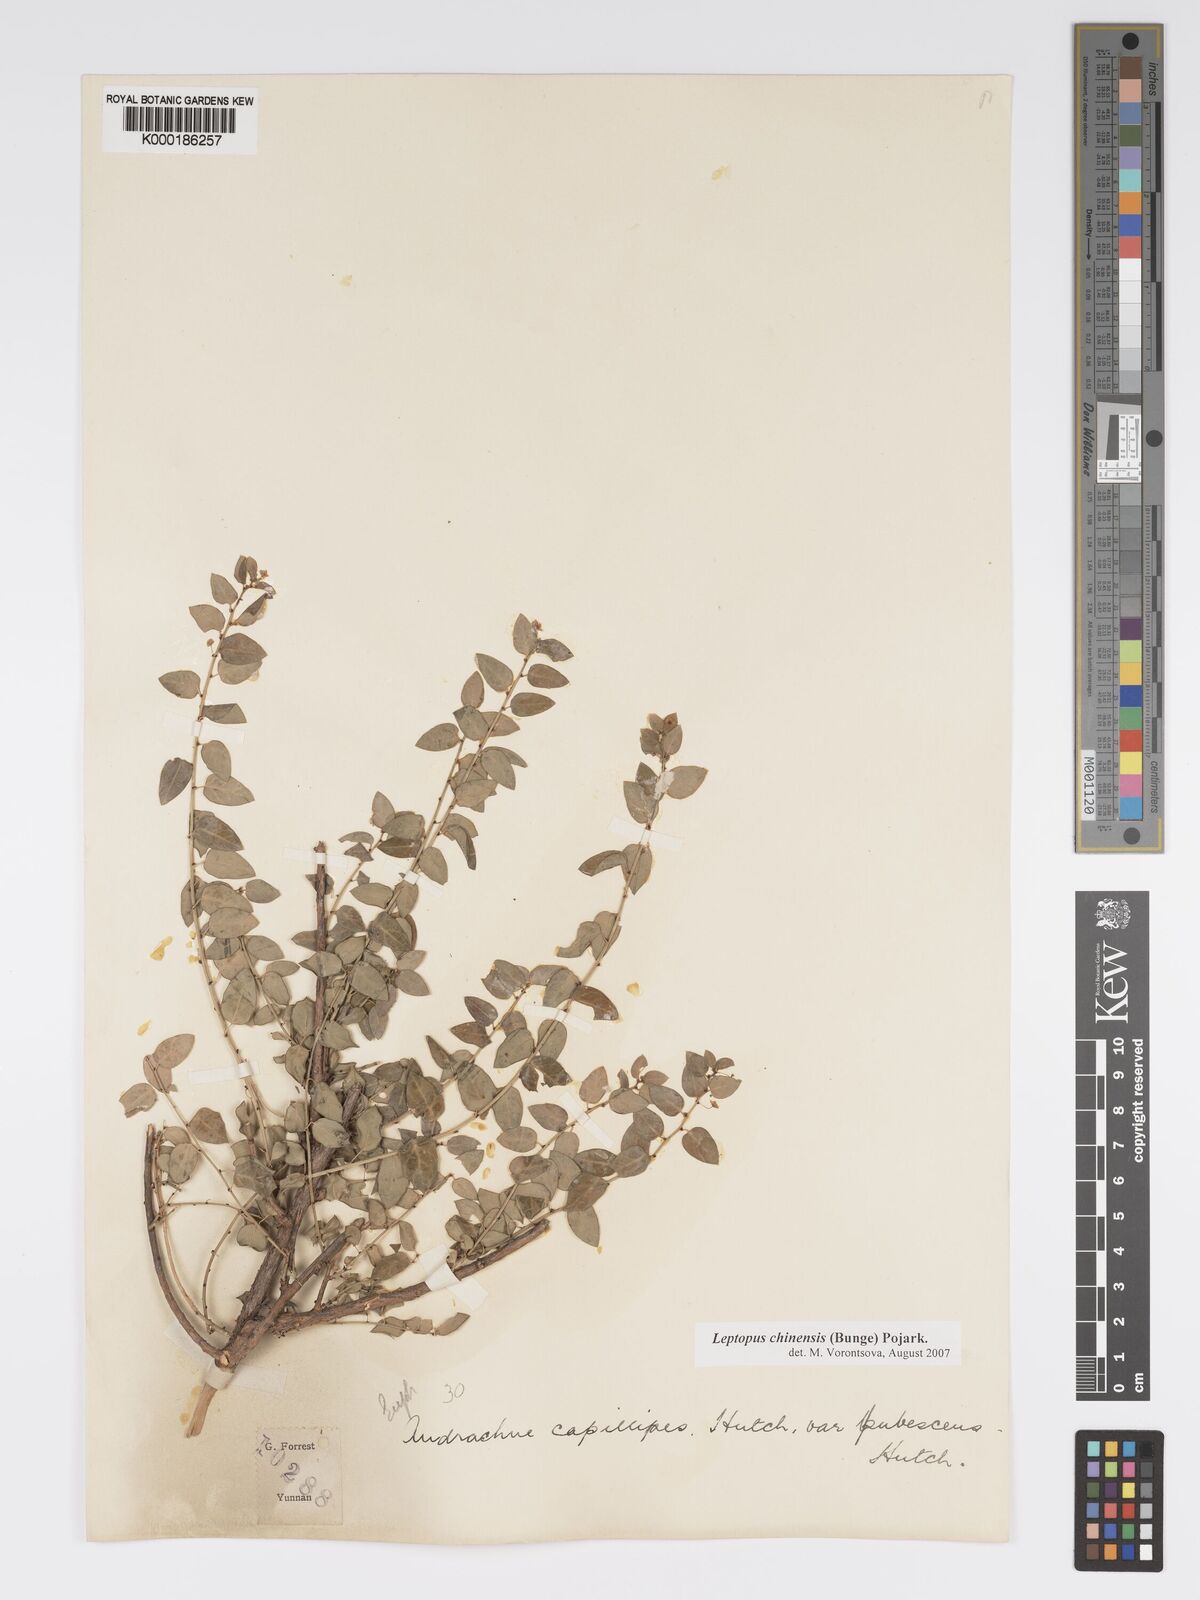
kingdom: Plantae
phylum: Tracheophyta
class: Magnoliopsida
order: Malpighiales
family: Phyllanthaceae
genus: Leptopus
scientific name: Leptopus chinensis
